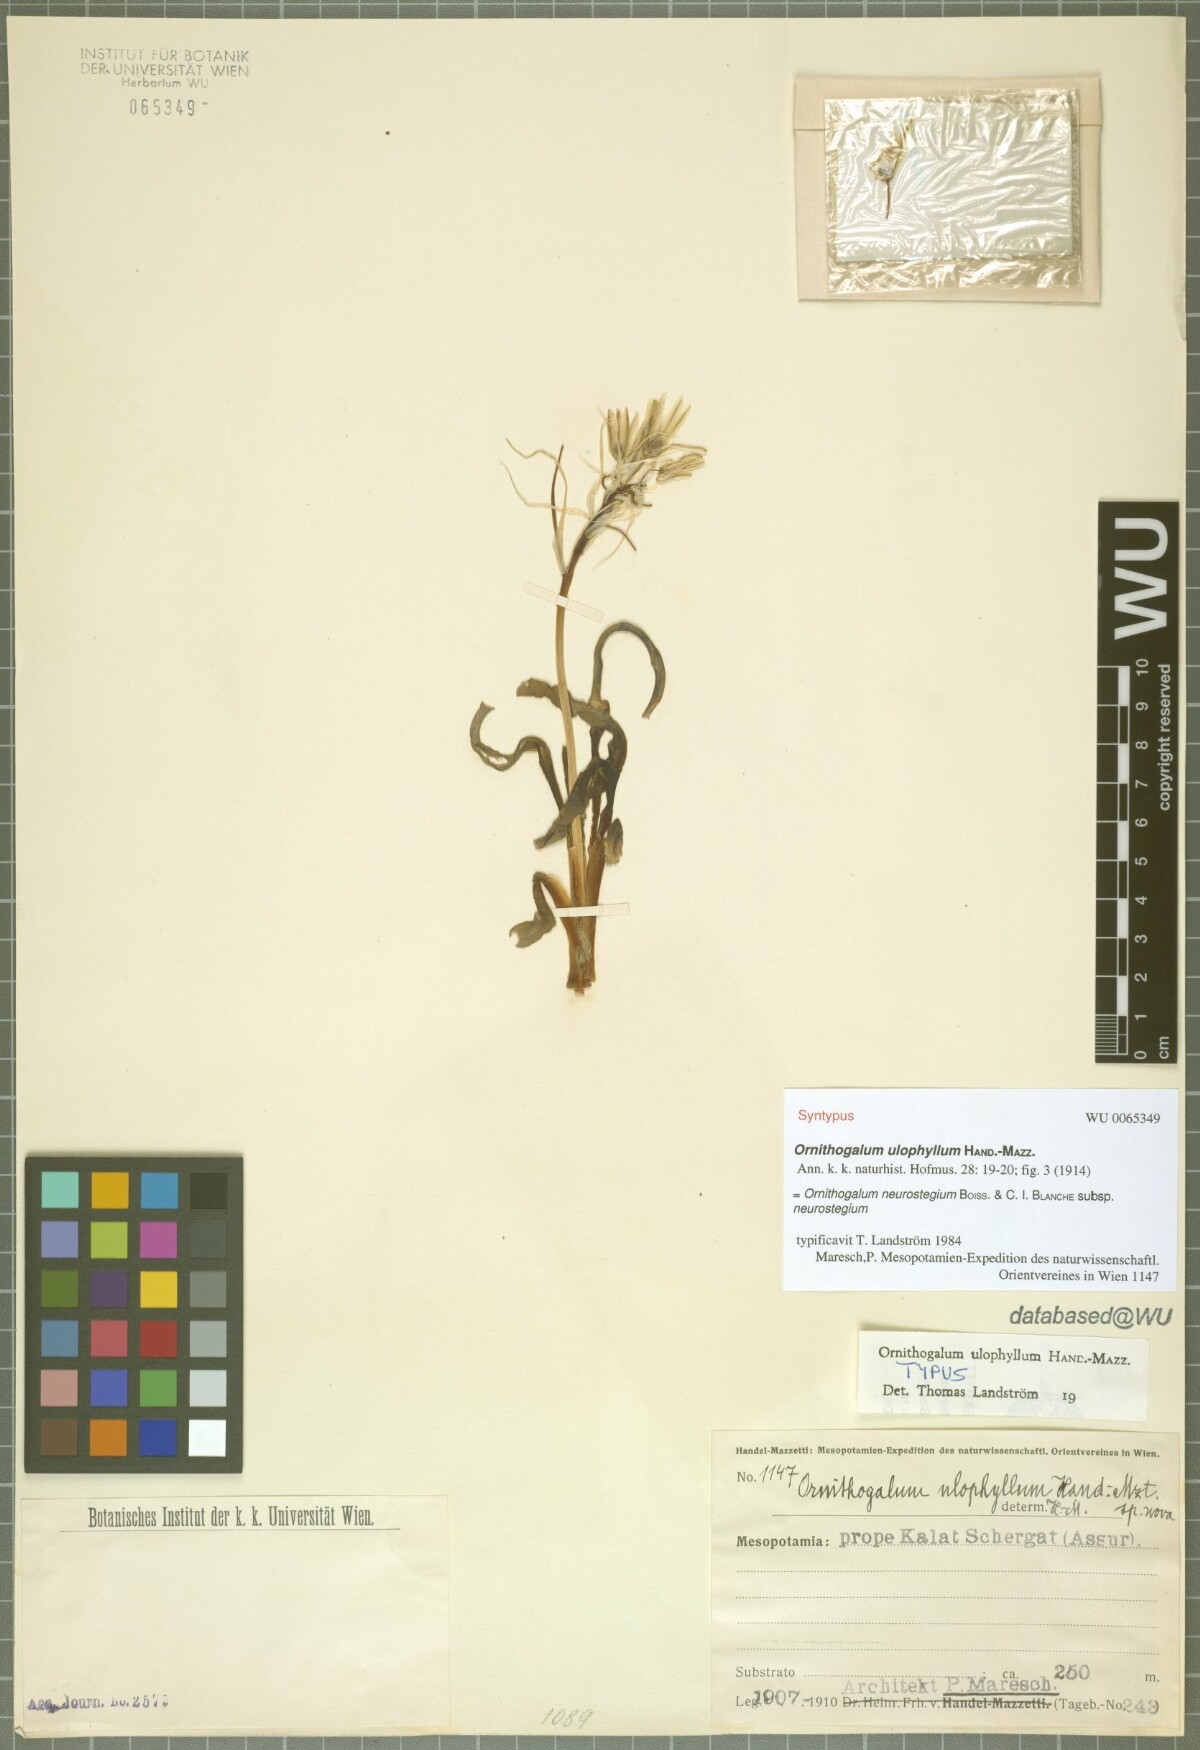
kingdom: Plantae
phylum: Tracheophyta
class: Liliopsida
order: Asparagales
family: Asparagaceae
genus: Ornithogalum
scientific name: Ornithogalum neurostegium
